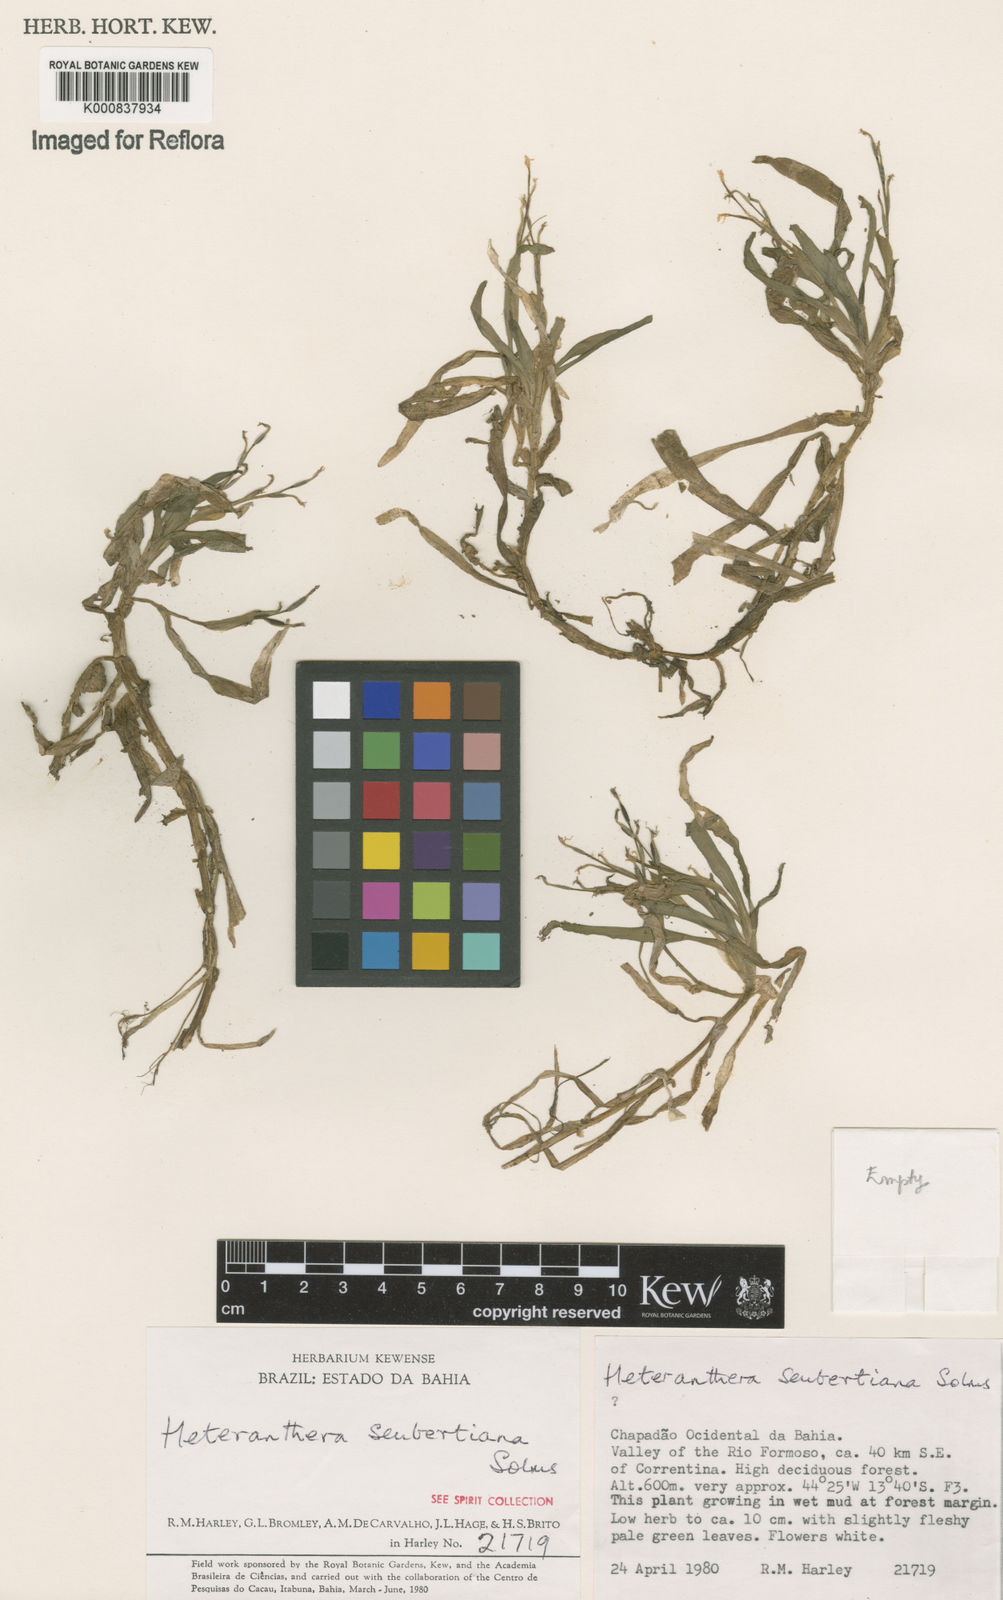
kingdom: Plantae
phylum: Tracheophyta
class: Liliopsida
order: Commelinales
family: Pontederiaceae
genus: Heteranthera
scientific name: Heteranthera seubertiana
